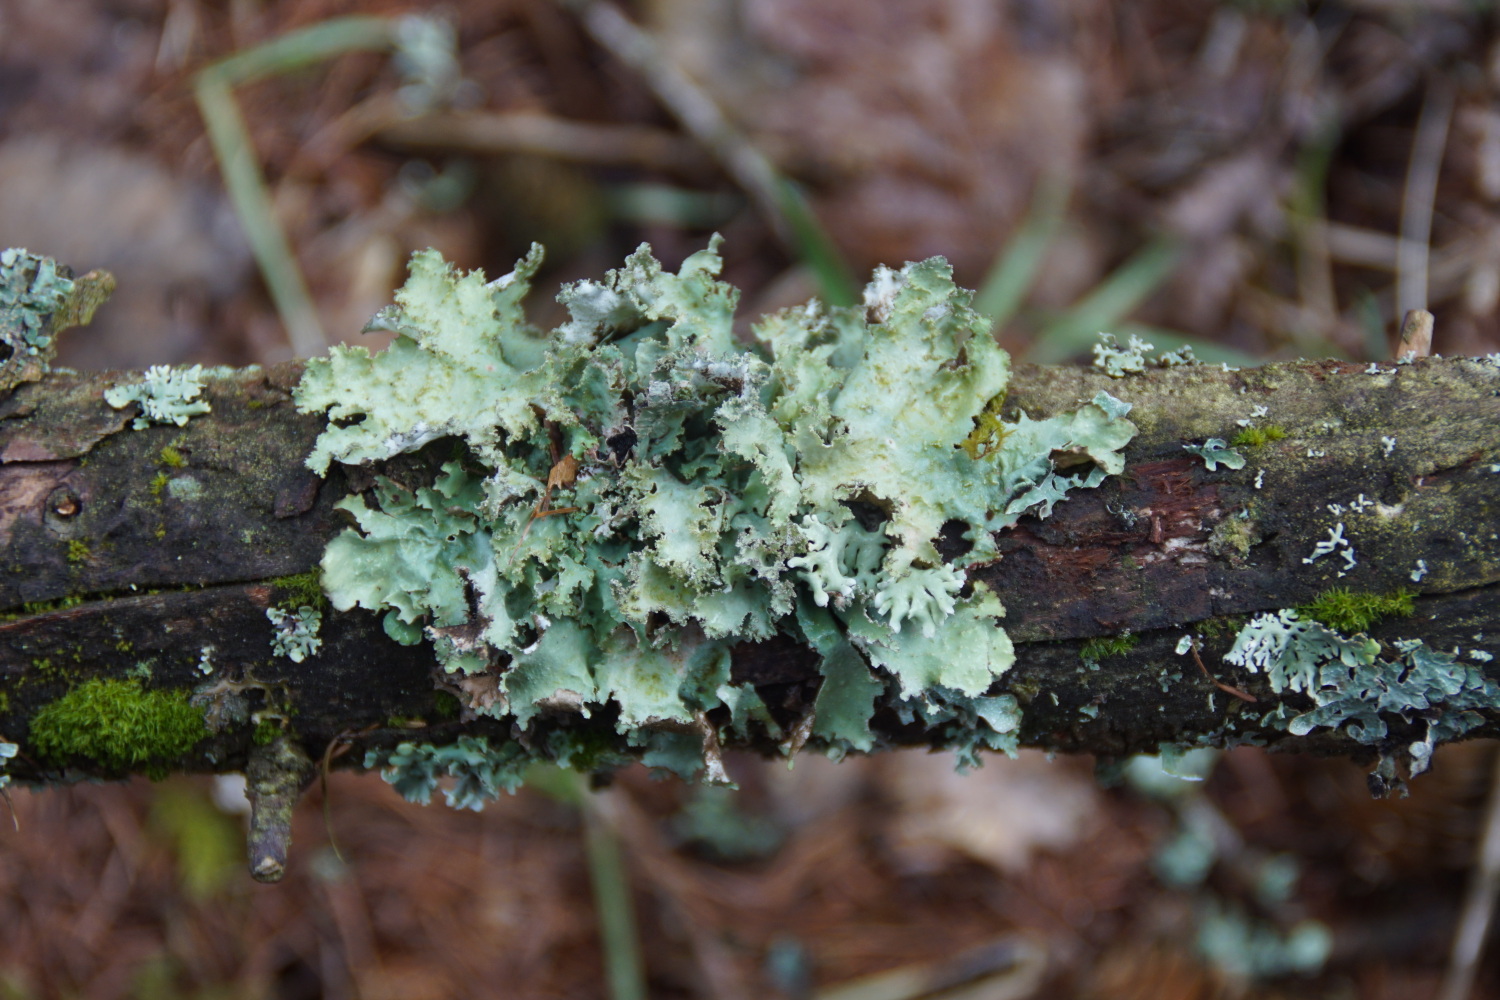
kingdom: Fungi
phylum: Ascomycota
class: Lecanoromycetes
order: Lecanorales
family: Parmeliaceae
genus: Platismatia
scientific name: Platismatia glauca
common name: blågrå papirlav
